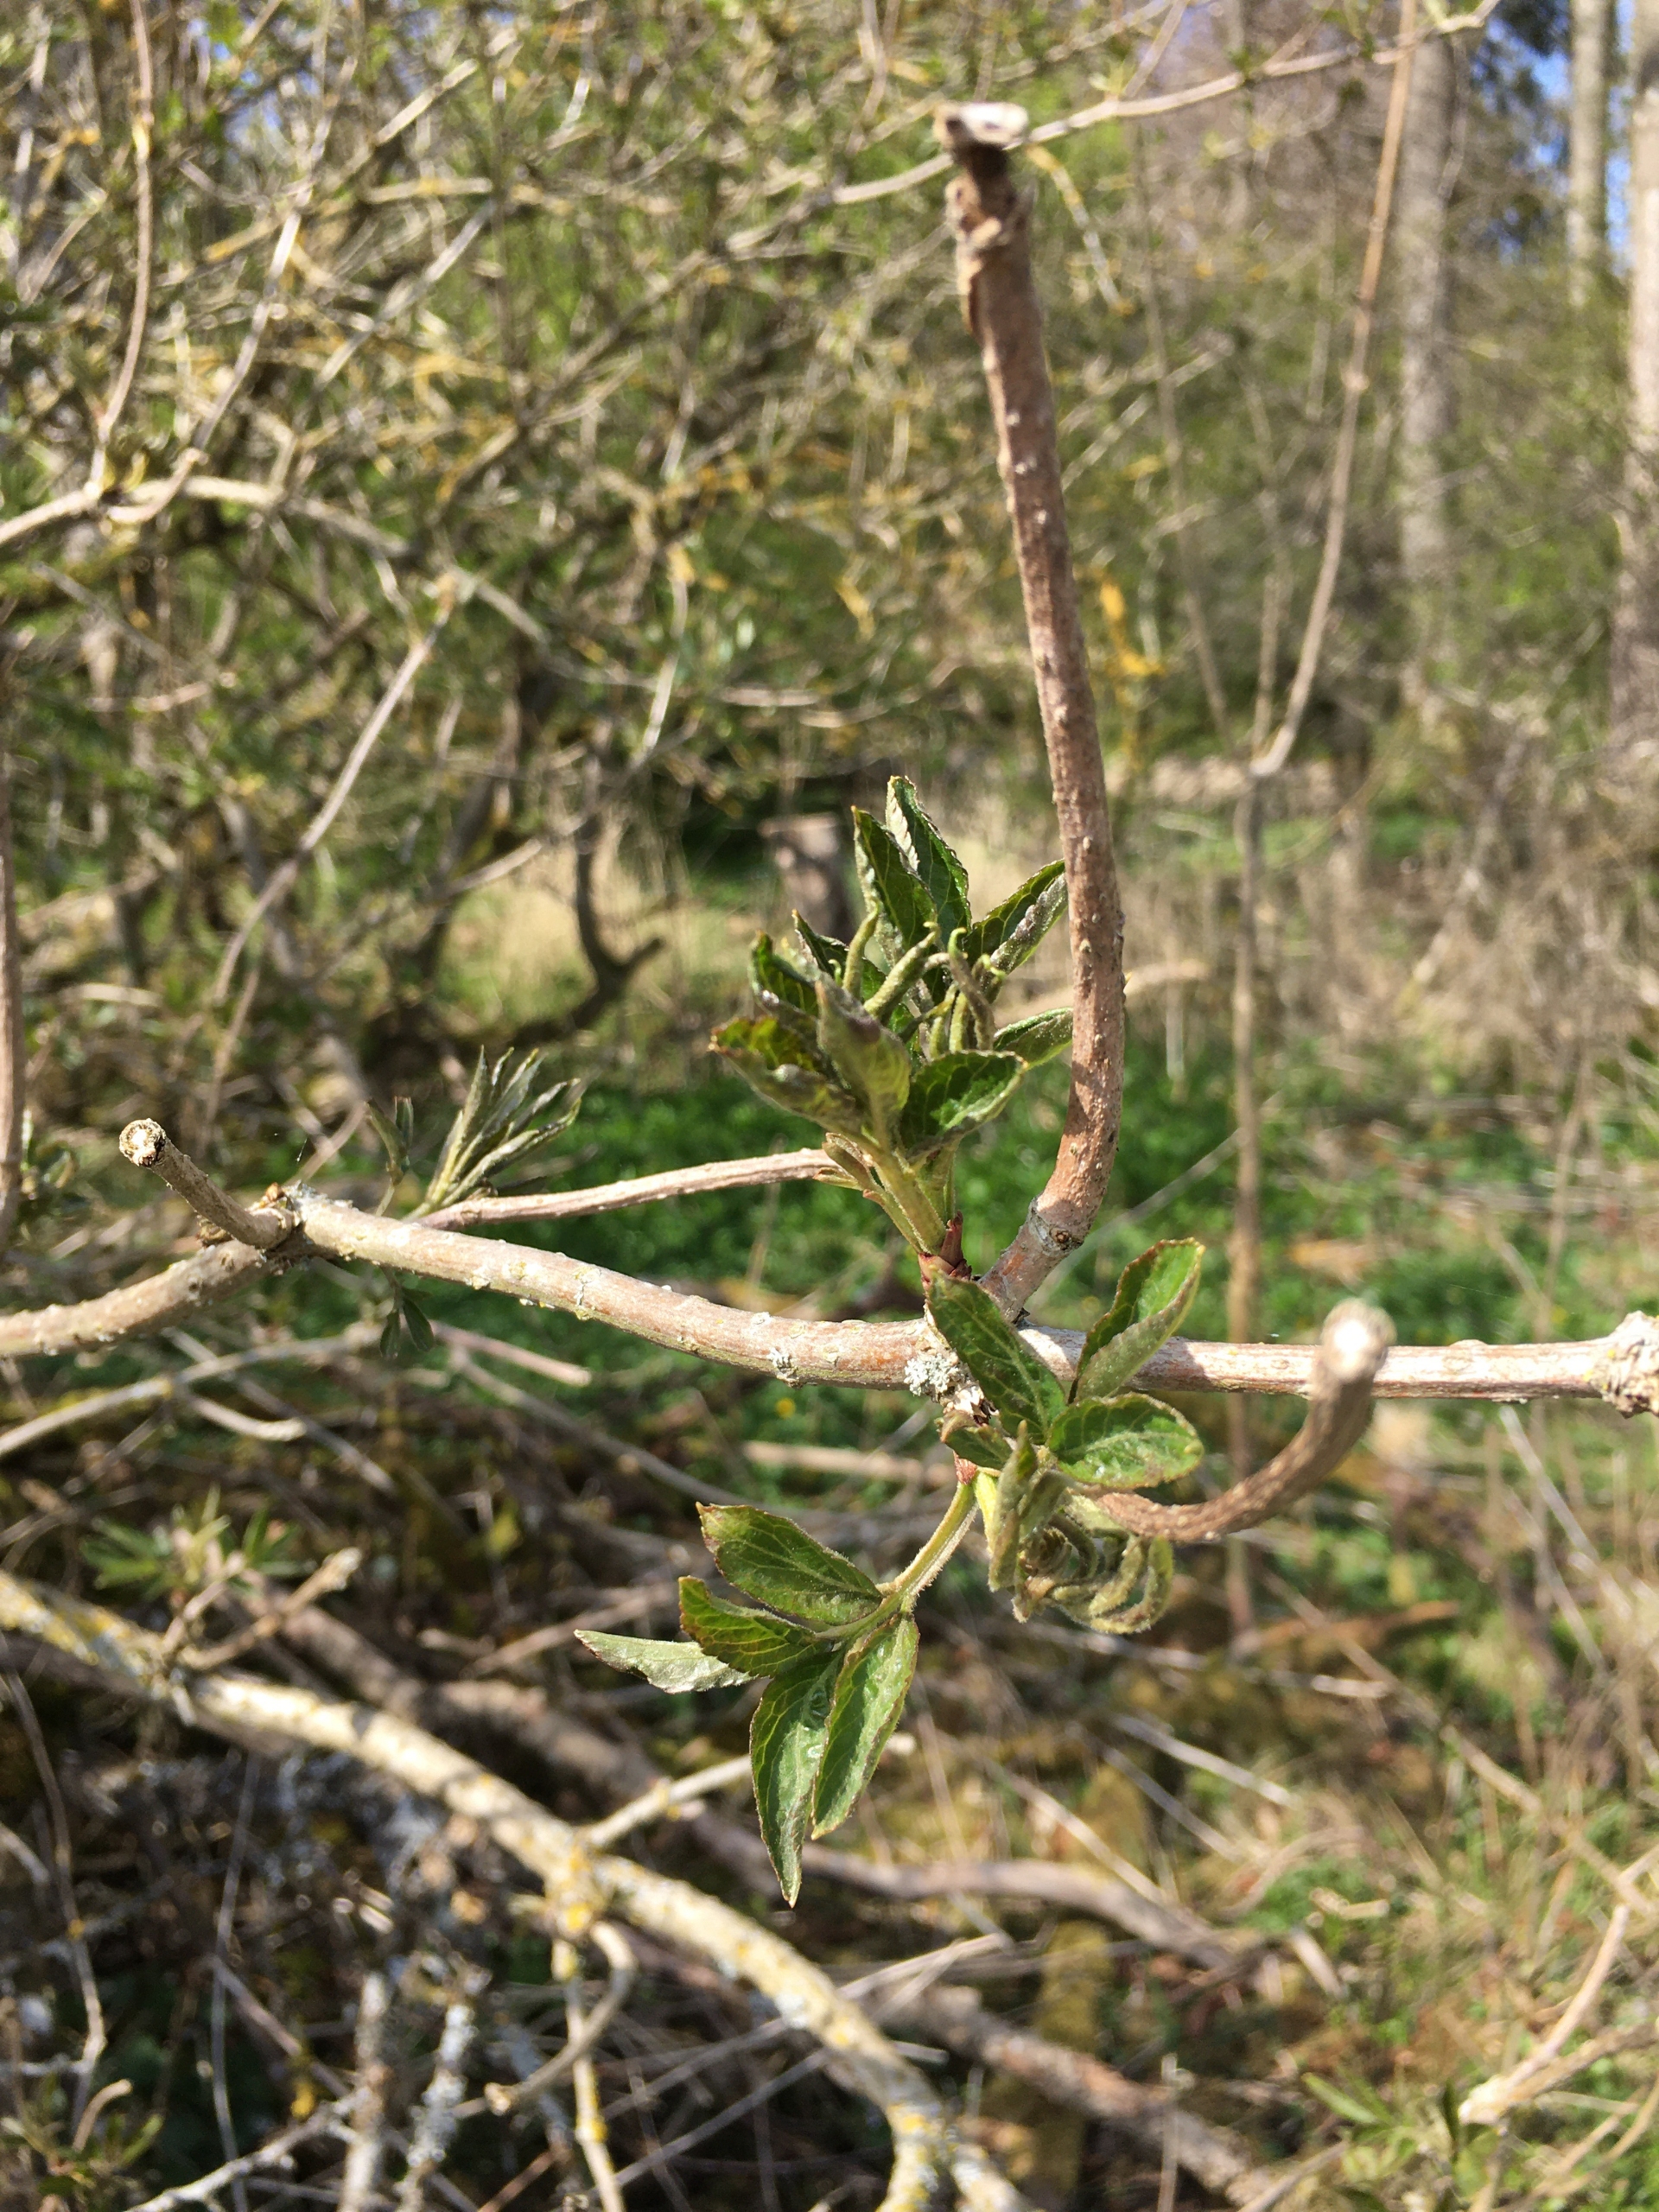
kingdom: Plantae
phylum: Tracheophyta
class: Magnoliopsida
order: Dipsacales
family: Viburnaceae
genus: Sambucus
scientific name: Sambucus nigra
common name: Almindelig hyld
